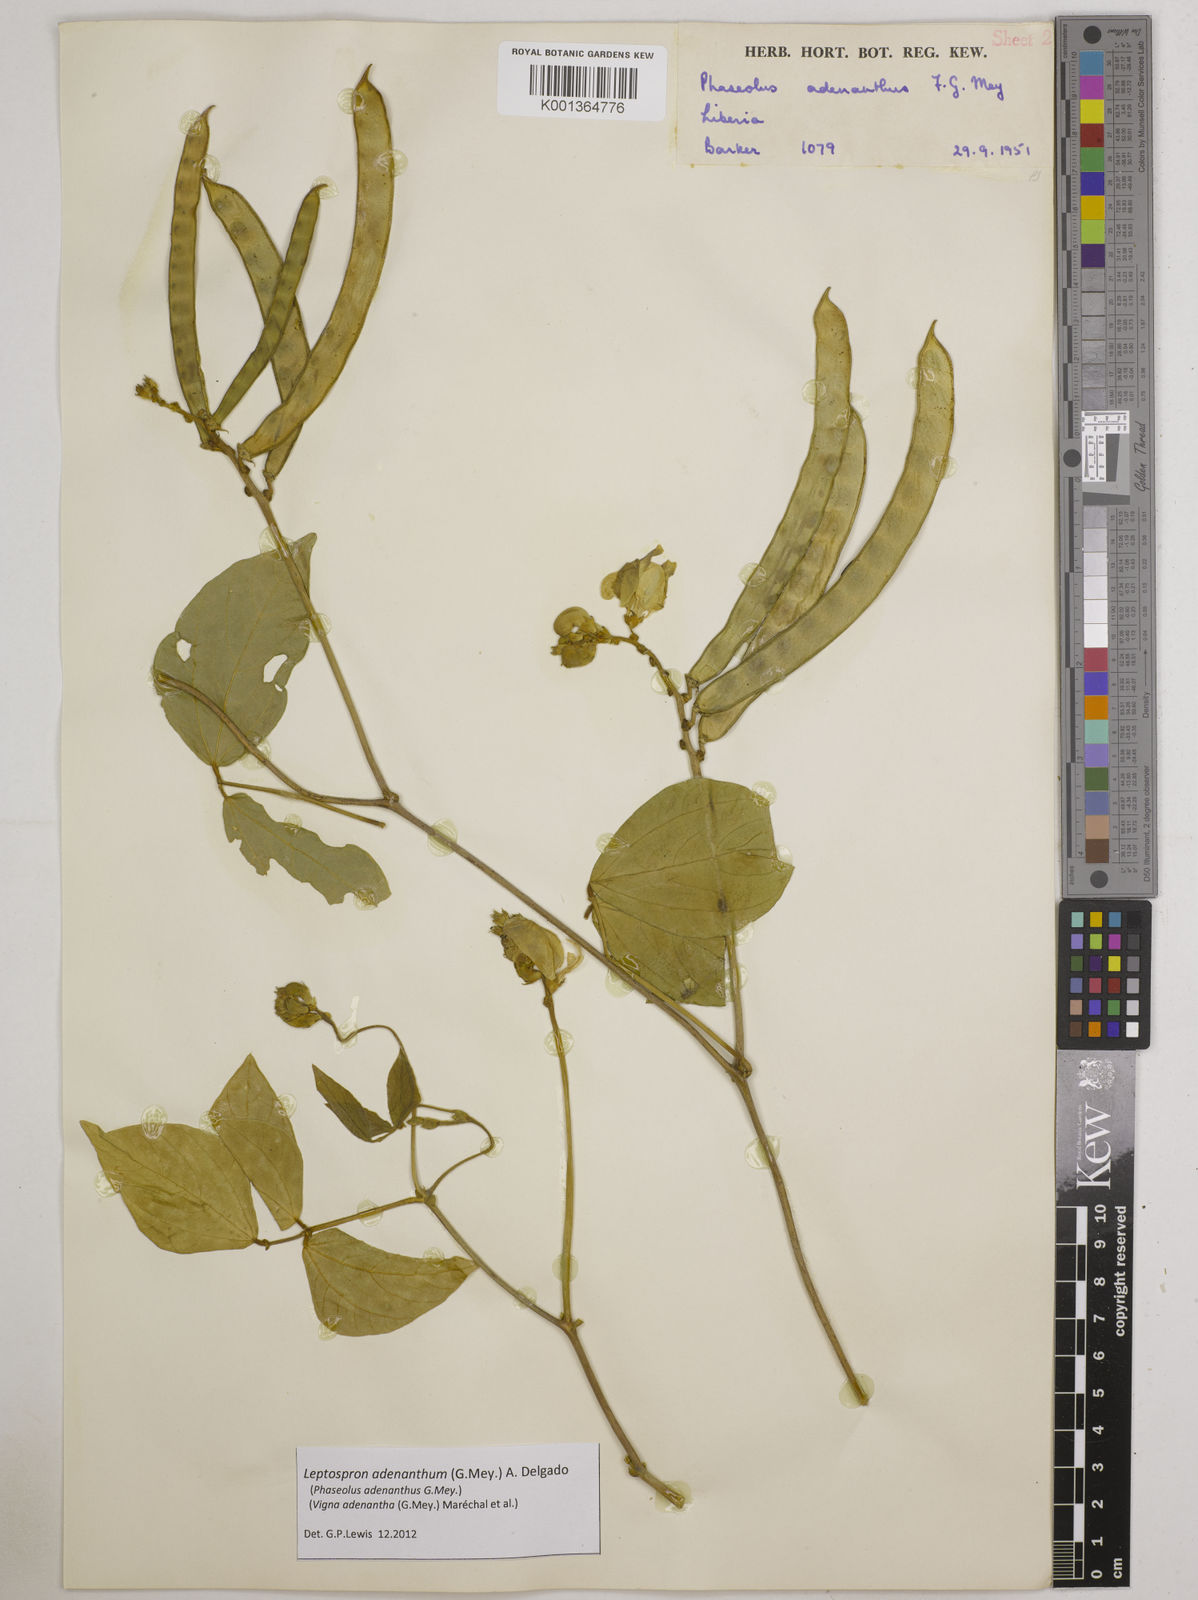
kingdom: Plantae
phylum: Tracheophyta
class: Magnoliopsida
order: Fabales
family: Fabaceae
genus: Leptospron
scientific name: Leptospron adenanthum
